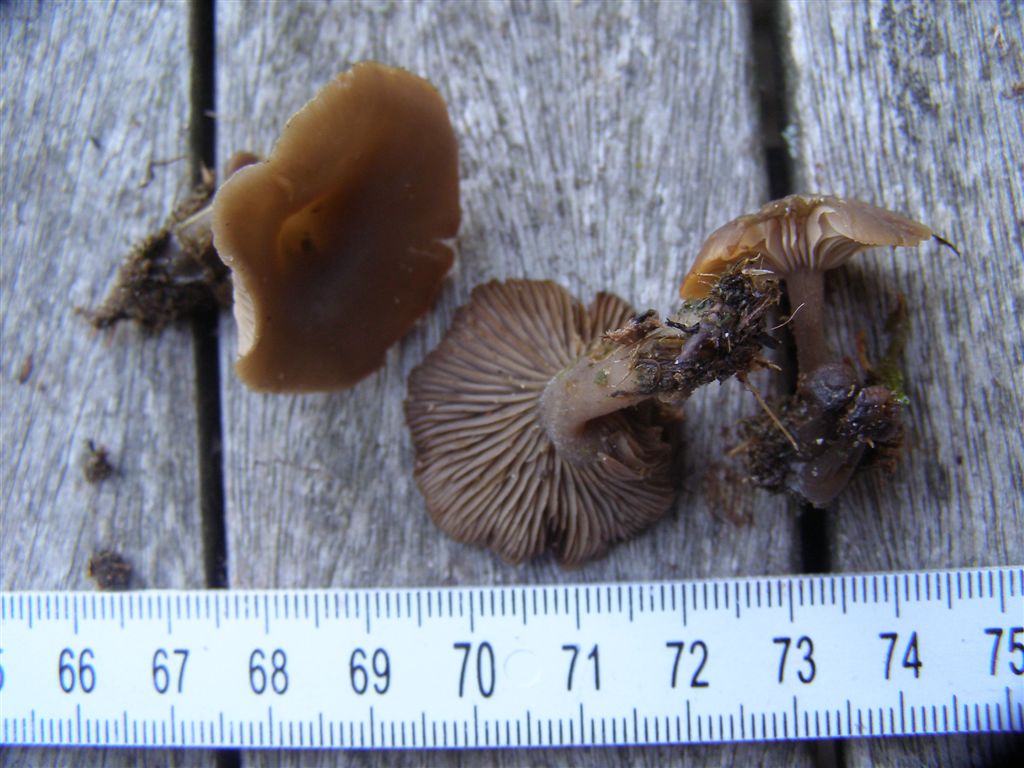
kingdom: Fungi
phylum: Basidiomycota
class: Agaricomycetes
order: Agaricales
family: Lyophyllaceae
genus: Tephrocybe
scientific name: Tephrocybe coracina
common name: ravne-gråblad
